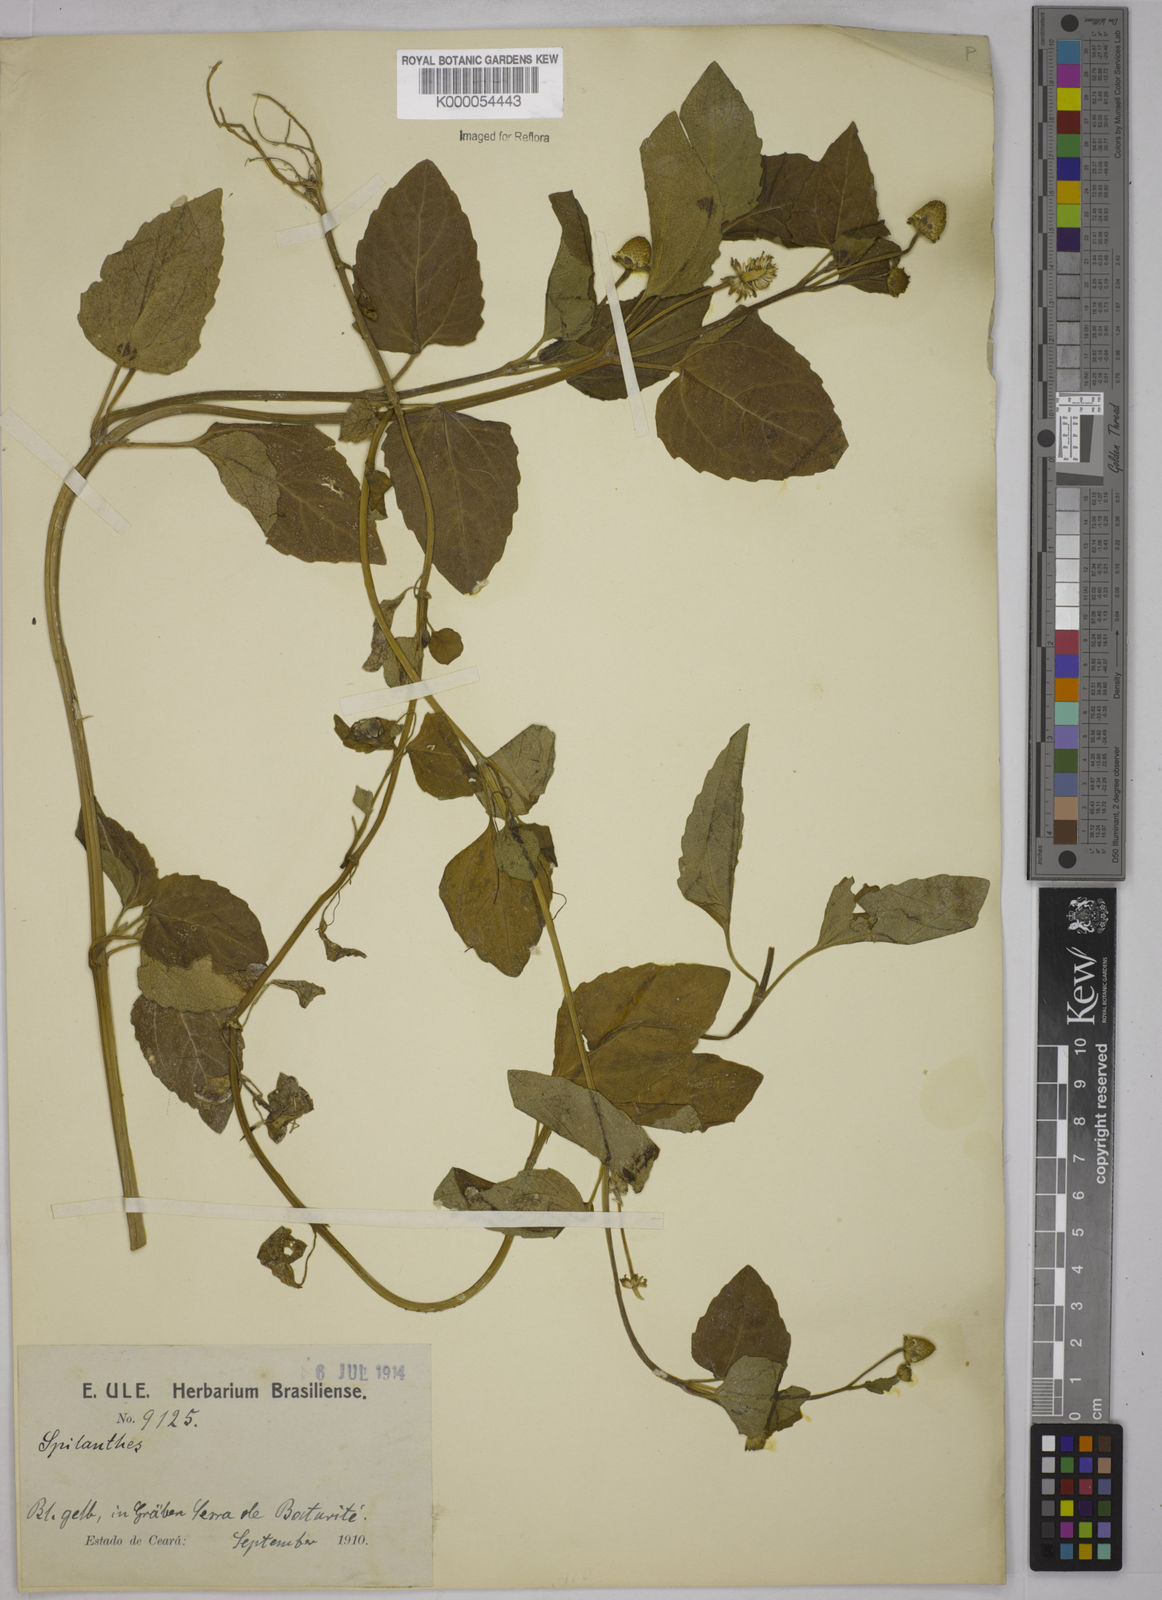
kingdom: Plantae
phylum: Tracheophyta
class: Magnoliopsida
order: Asterales
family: Asteraceae
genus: Acmella
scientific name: Acmella ciliata
